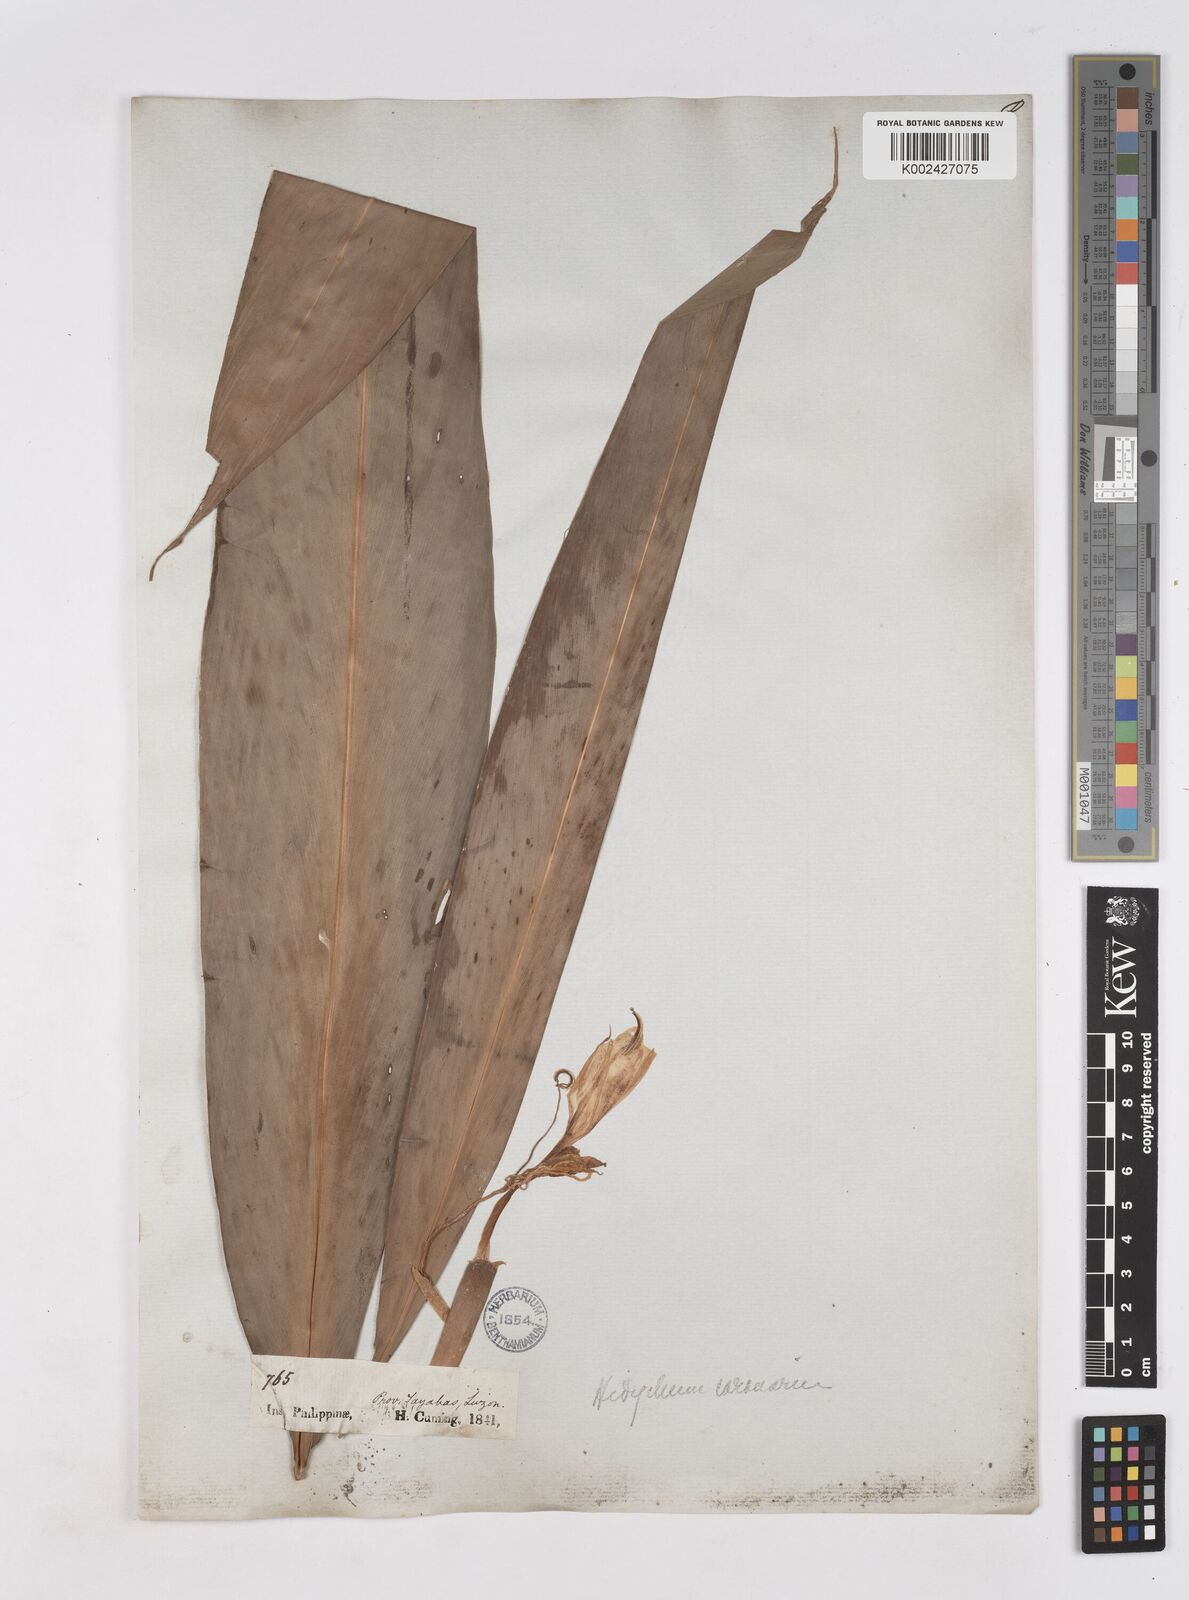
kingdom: Plantae
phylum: Tracheophyta
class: Liliopsida
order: Zingiberales
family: Zingiberaceae
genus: Hedychium
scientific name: Hedychium coronarium
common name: White garland-lily
